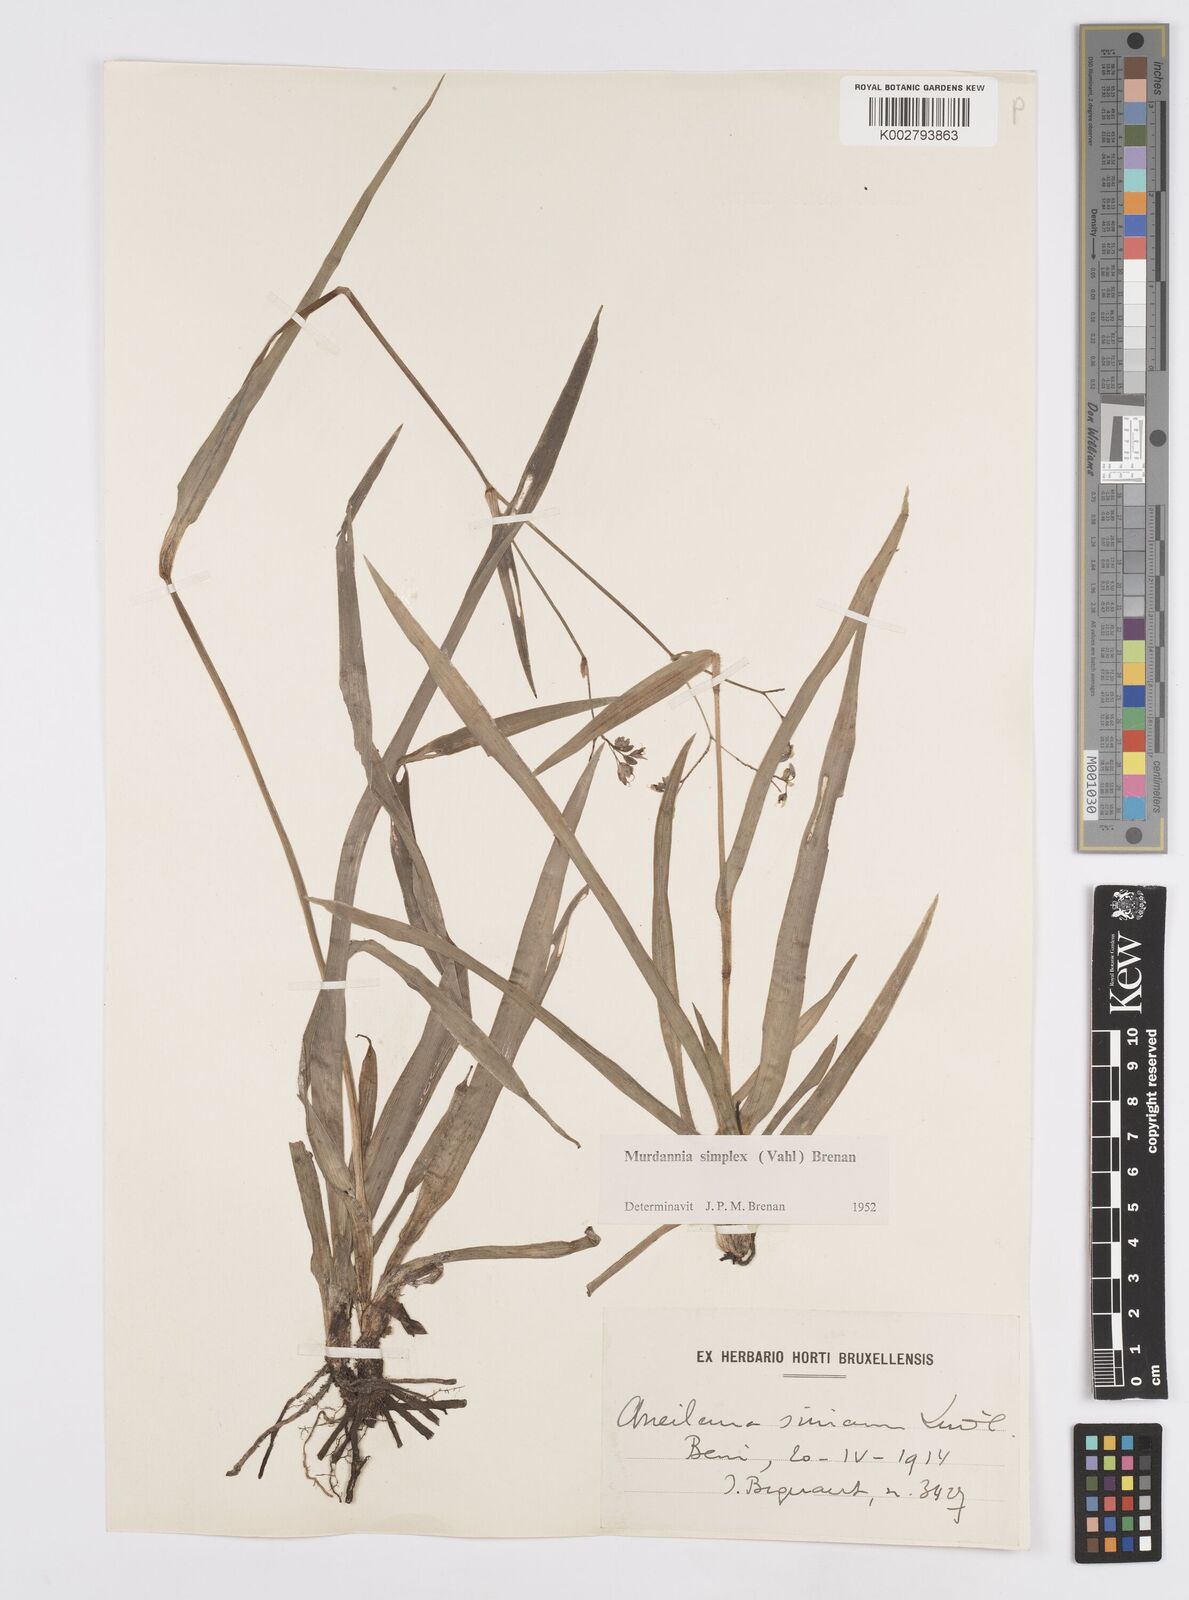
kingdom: Plantae
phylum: Tracheophyta
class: Liliopsida
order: Commelinales
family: Commelinaceae
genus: Murdannia
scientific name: Murdannia simplex
